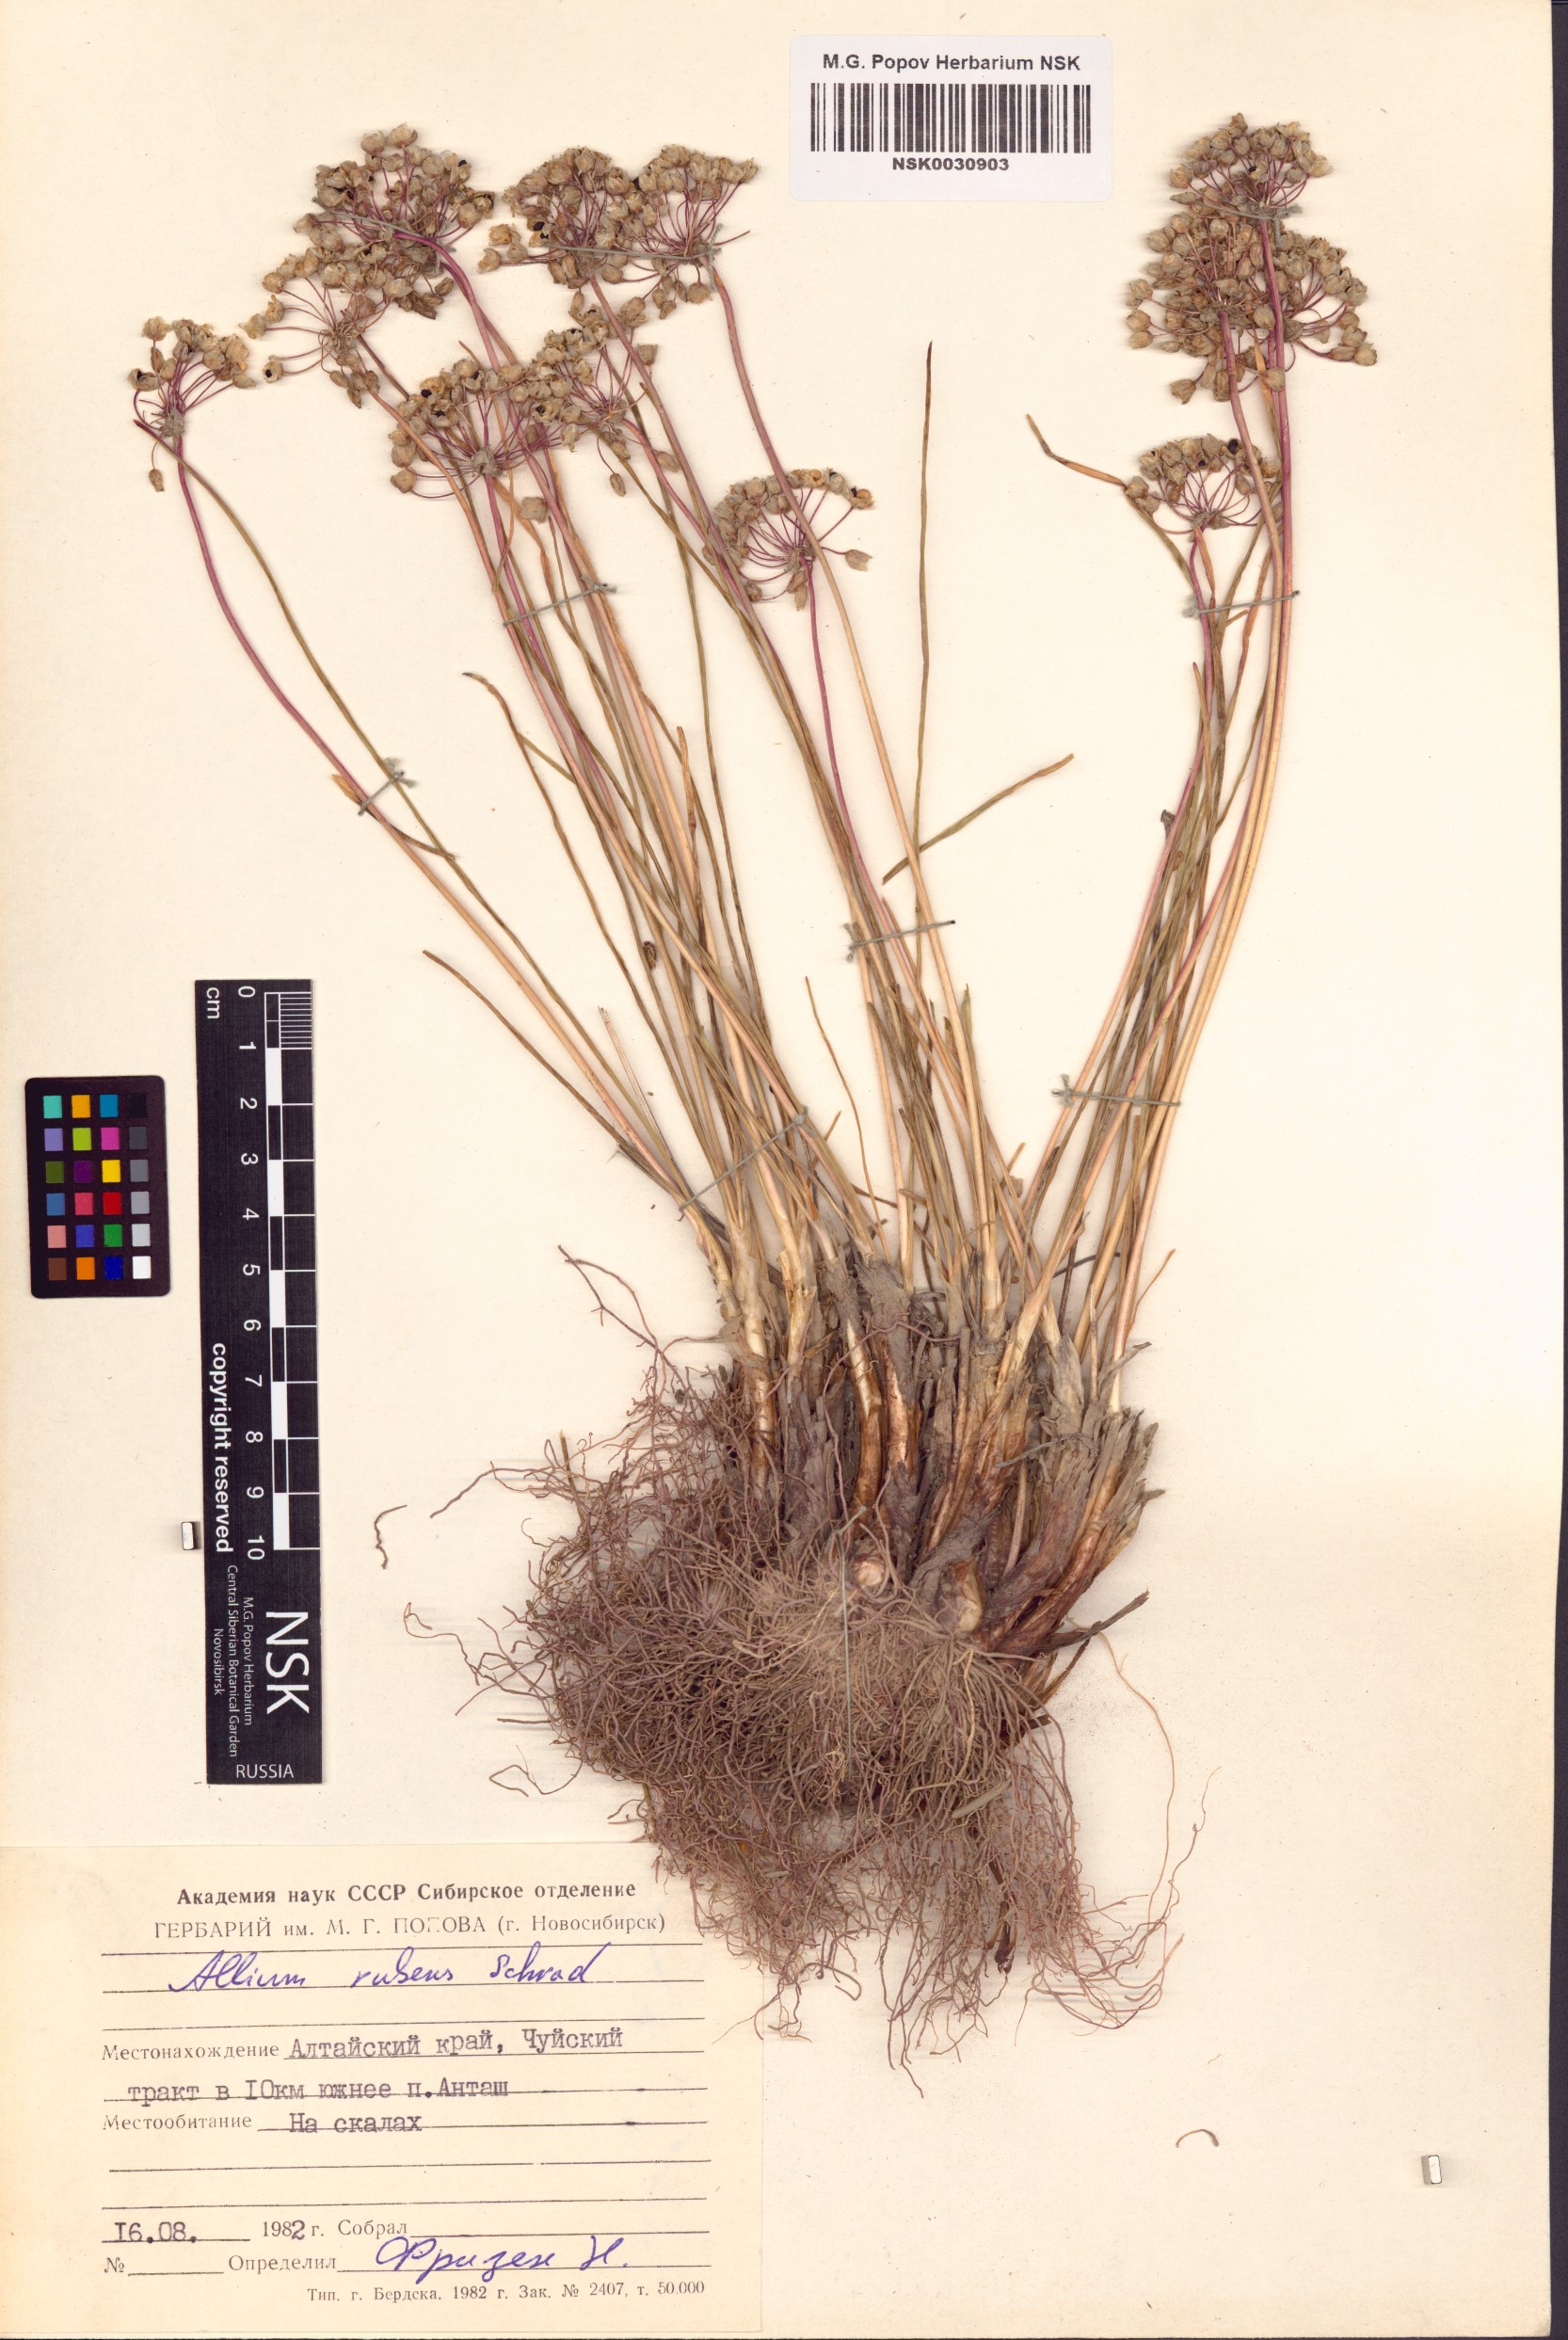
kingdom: Plantae
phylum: Tracheophyta
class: Liliopsida
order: Asparagales
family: Amaryllidaceae
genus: Allium
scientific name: Allium rubens
